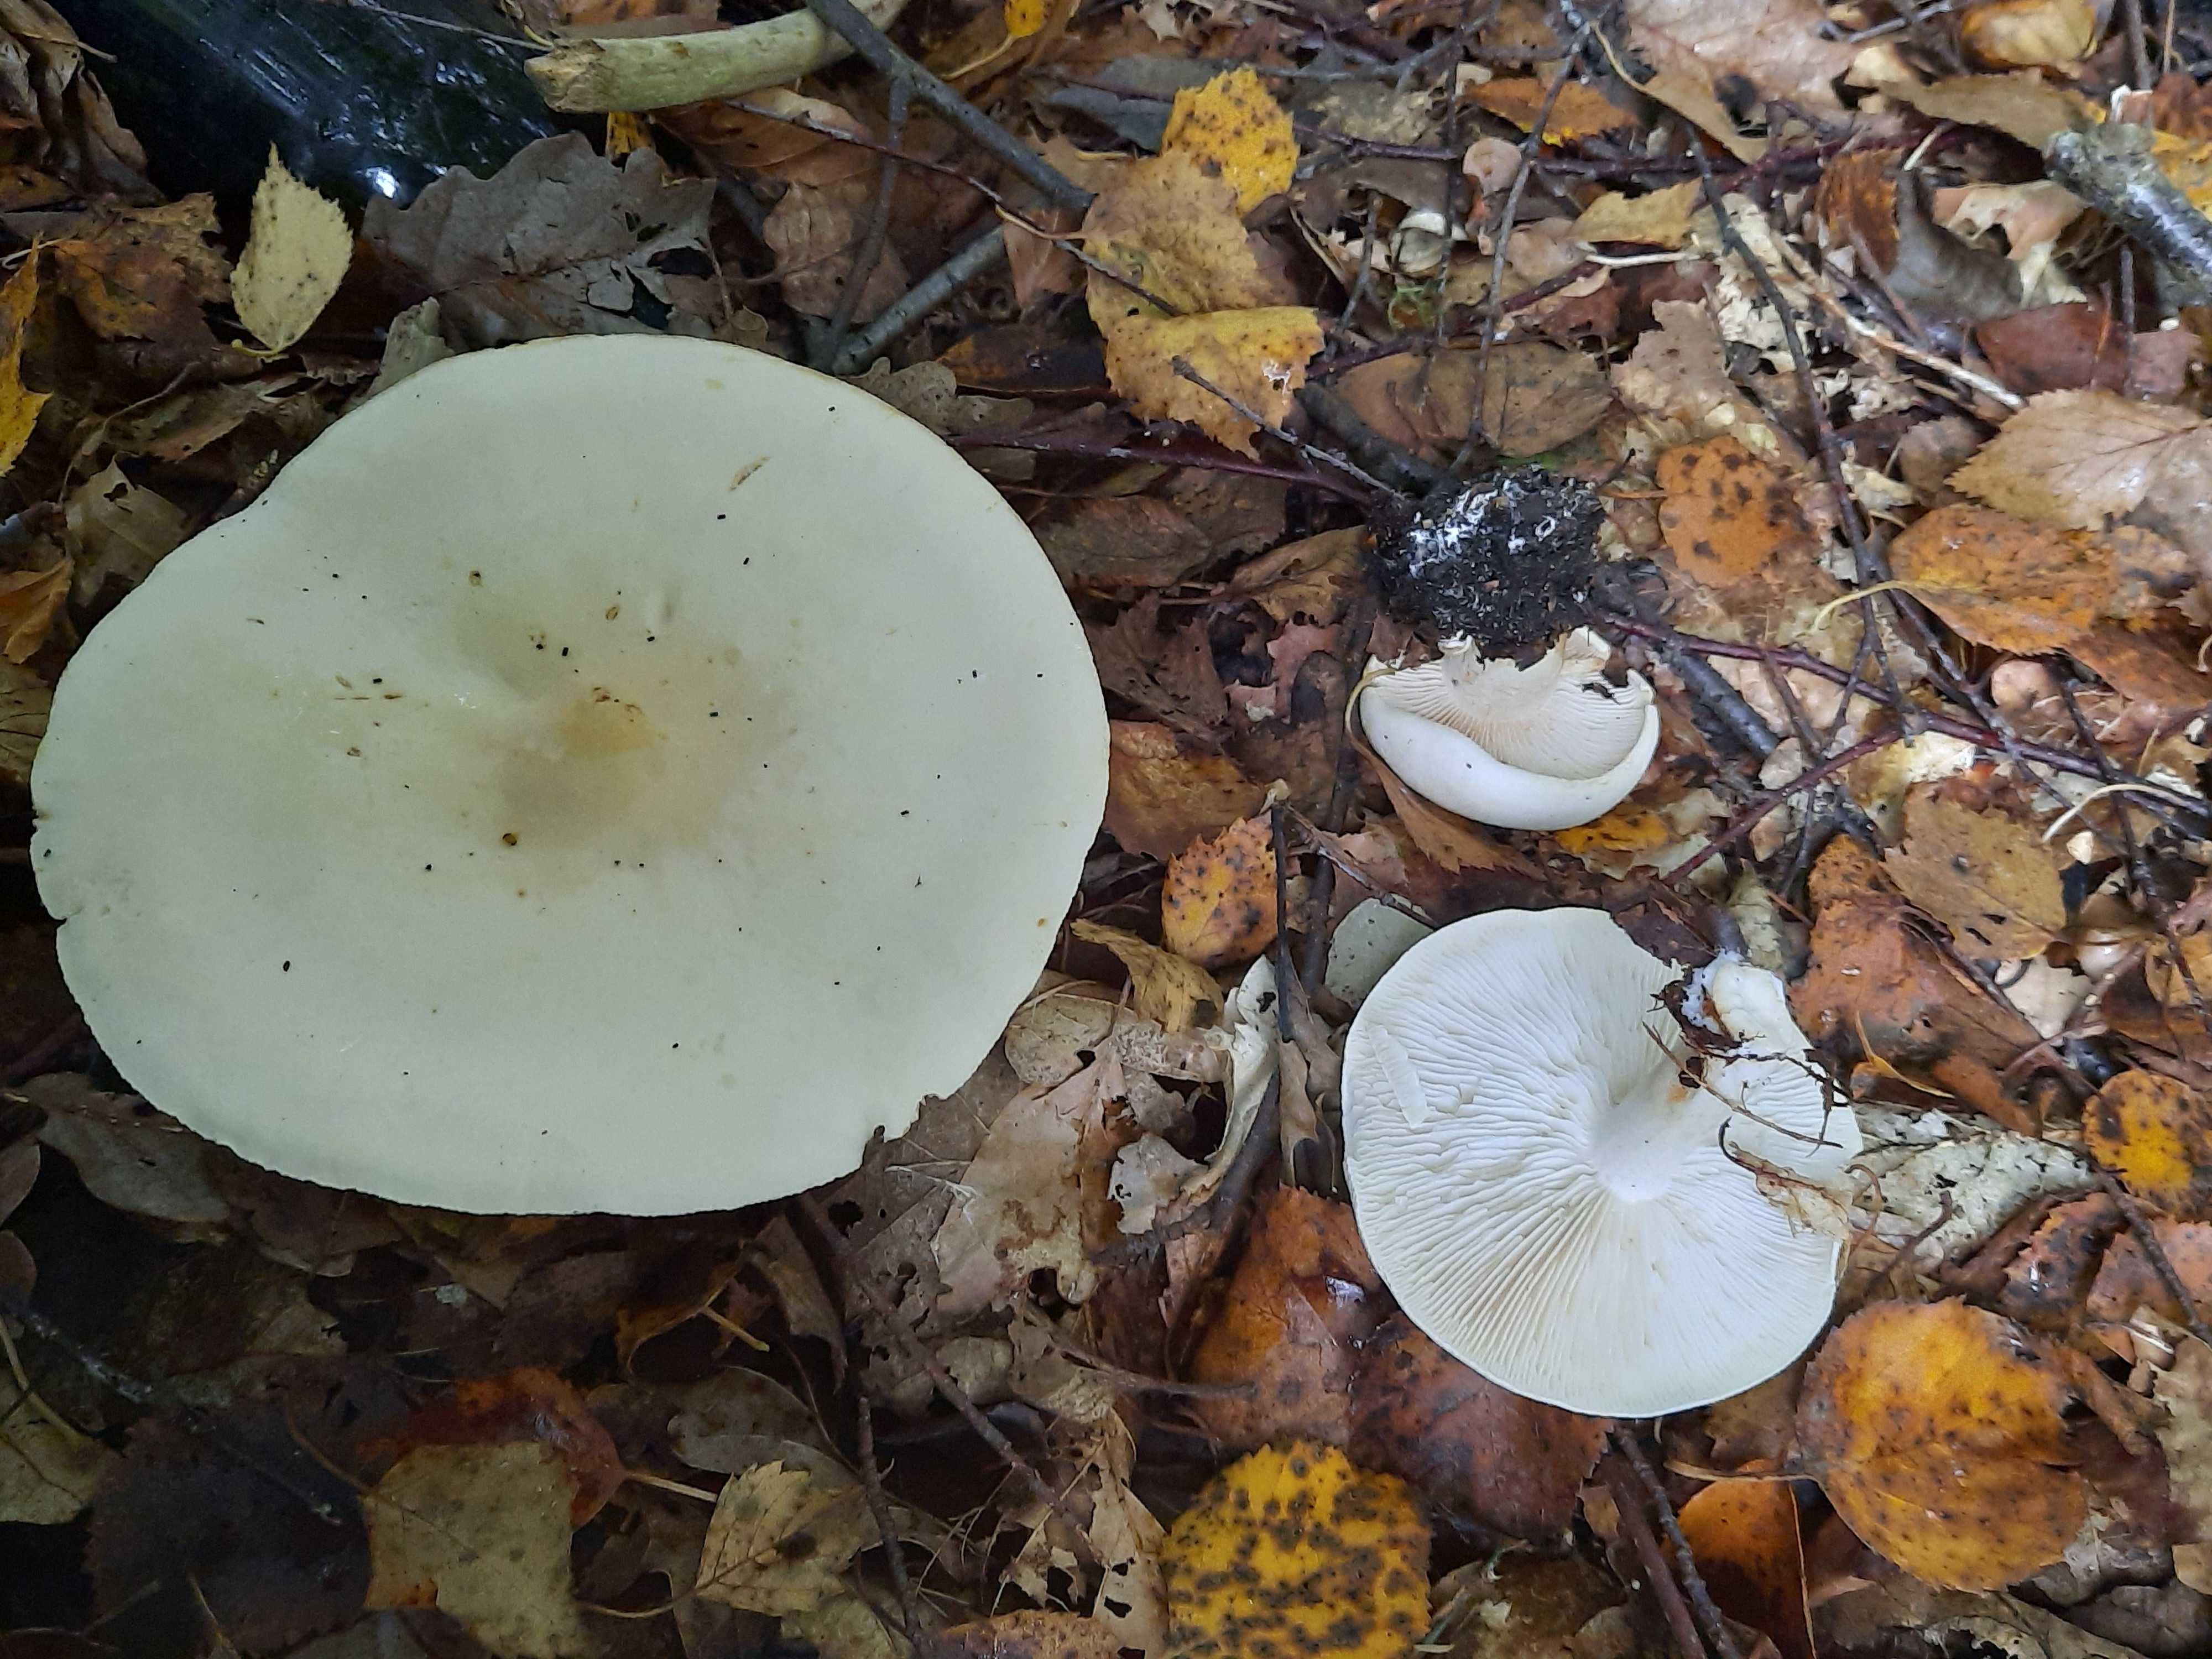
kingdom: Fungi
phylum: Basidiomycota
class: Agaricomycetes
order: Agaricales
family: Tricholomataceae
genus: Tricholoma
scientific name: Tricholoma stiparophyllum
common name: hvid ridderhat
